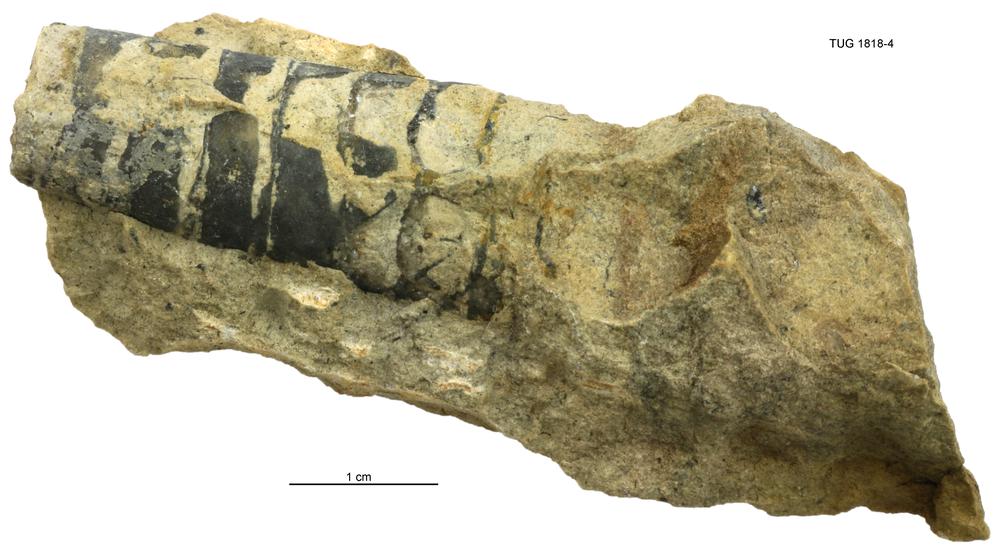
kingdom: Animalia
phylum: Mollusca
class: Cephalopoda
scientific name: Cephalopoda
